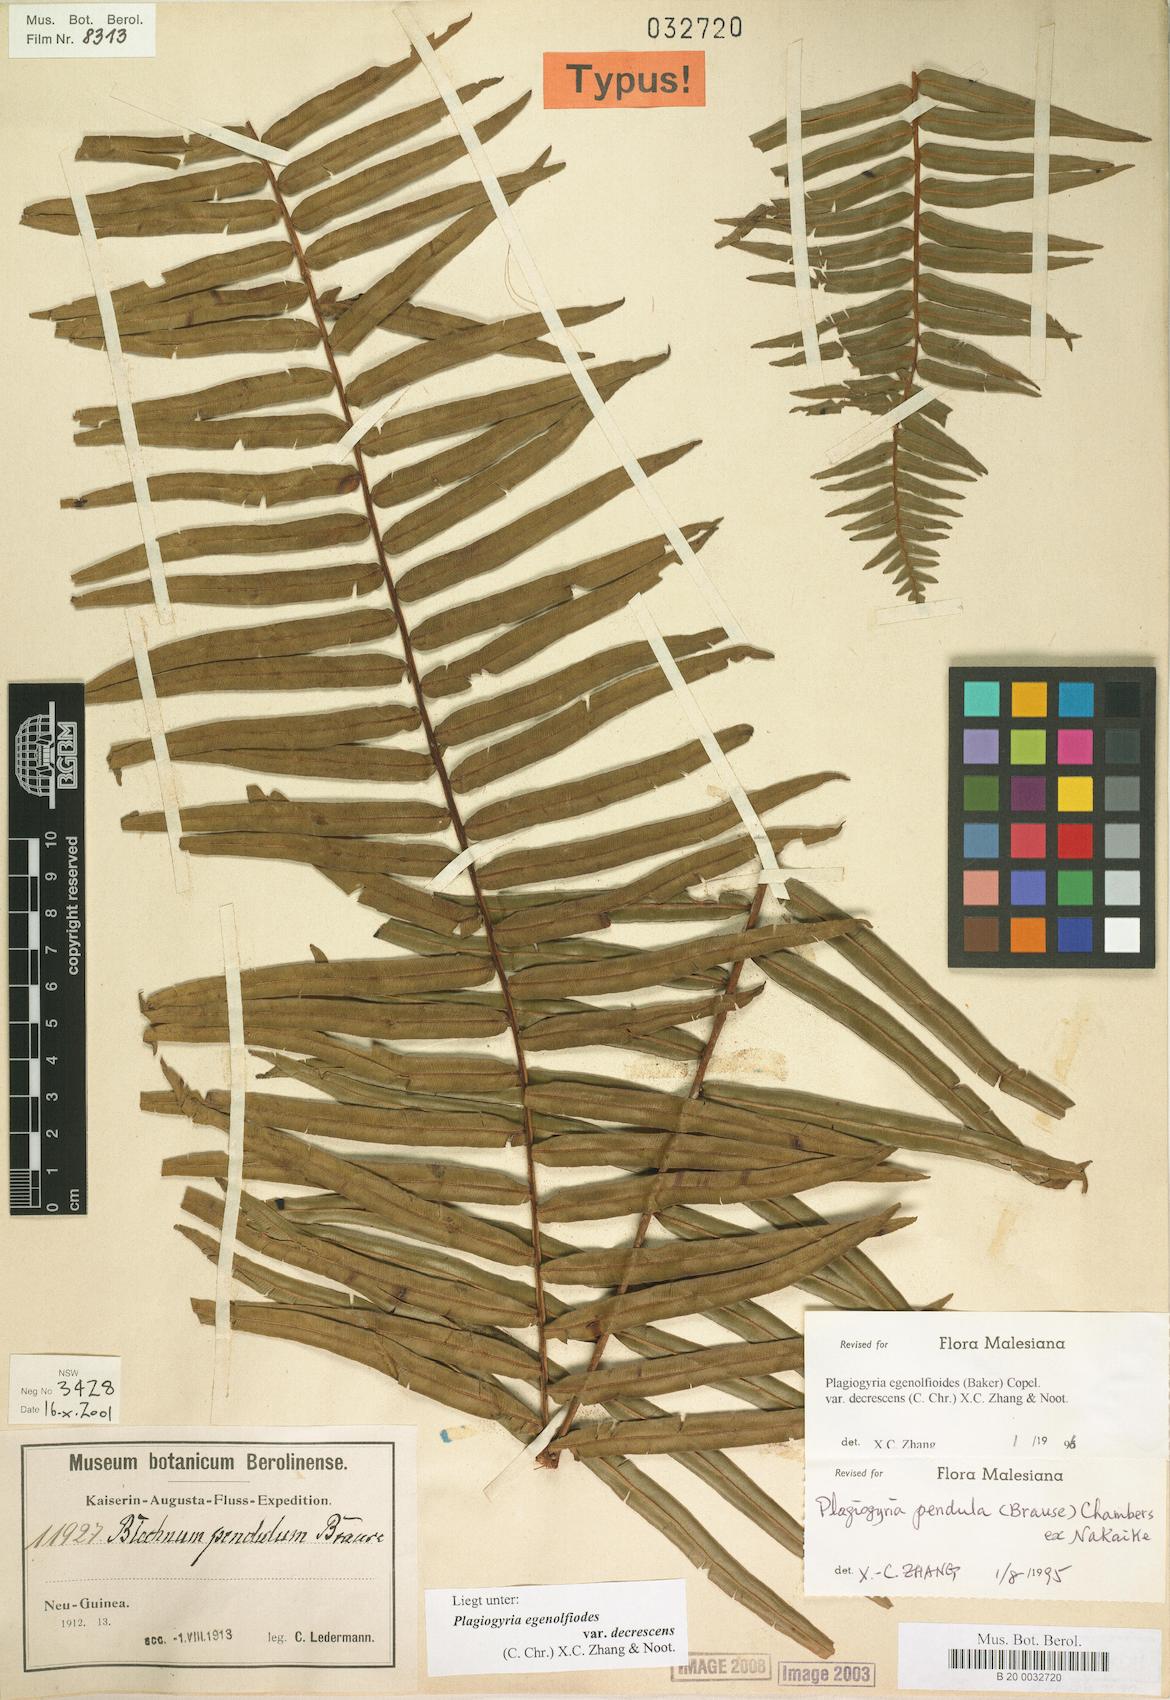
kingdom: Plantae
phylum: Tracheophyta
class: Polypodiopsida
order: Cyatheales
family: Plagiogyriaceae
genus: Plagiogyria
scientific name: Plagiogyria egenolfioides
